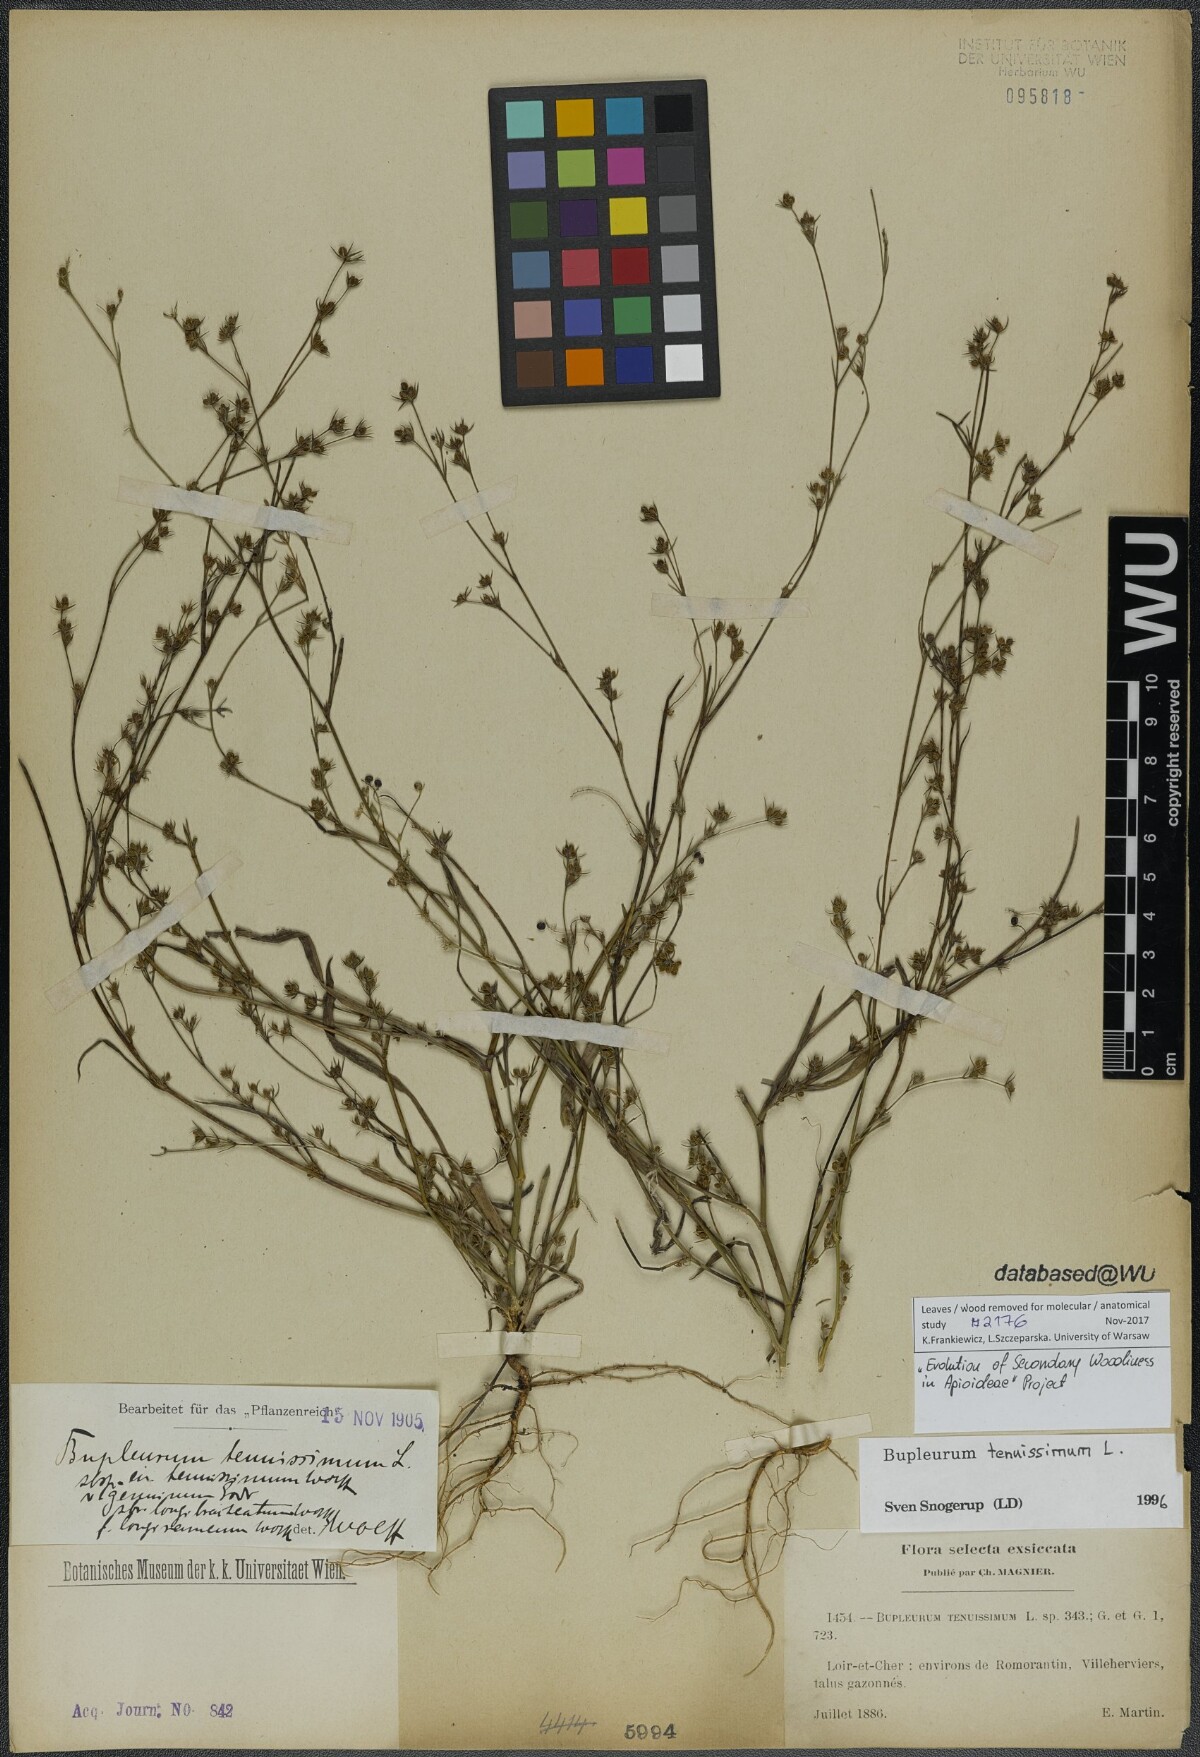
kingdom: Plantae
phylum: Tracheophyta
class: Magnoliopsida
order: Apiales
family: Apiaceae
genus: Bupleurum
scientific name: Bupleurum tenuissimum
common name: Slender hare's-ear
